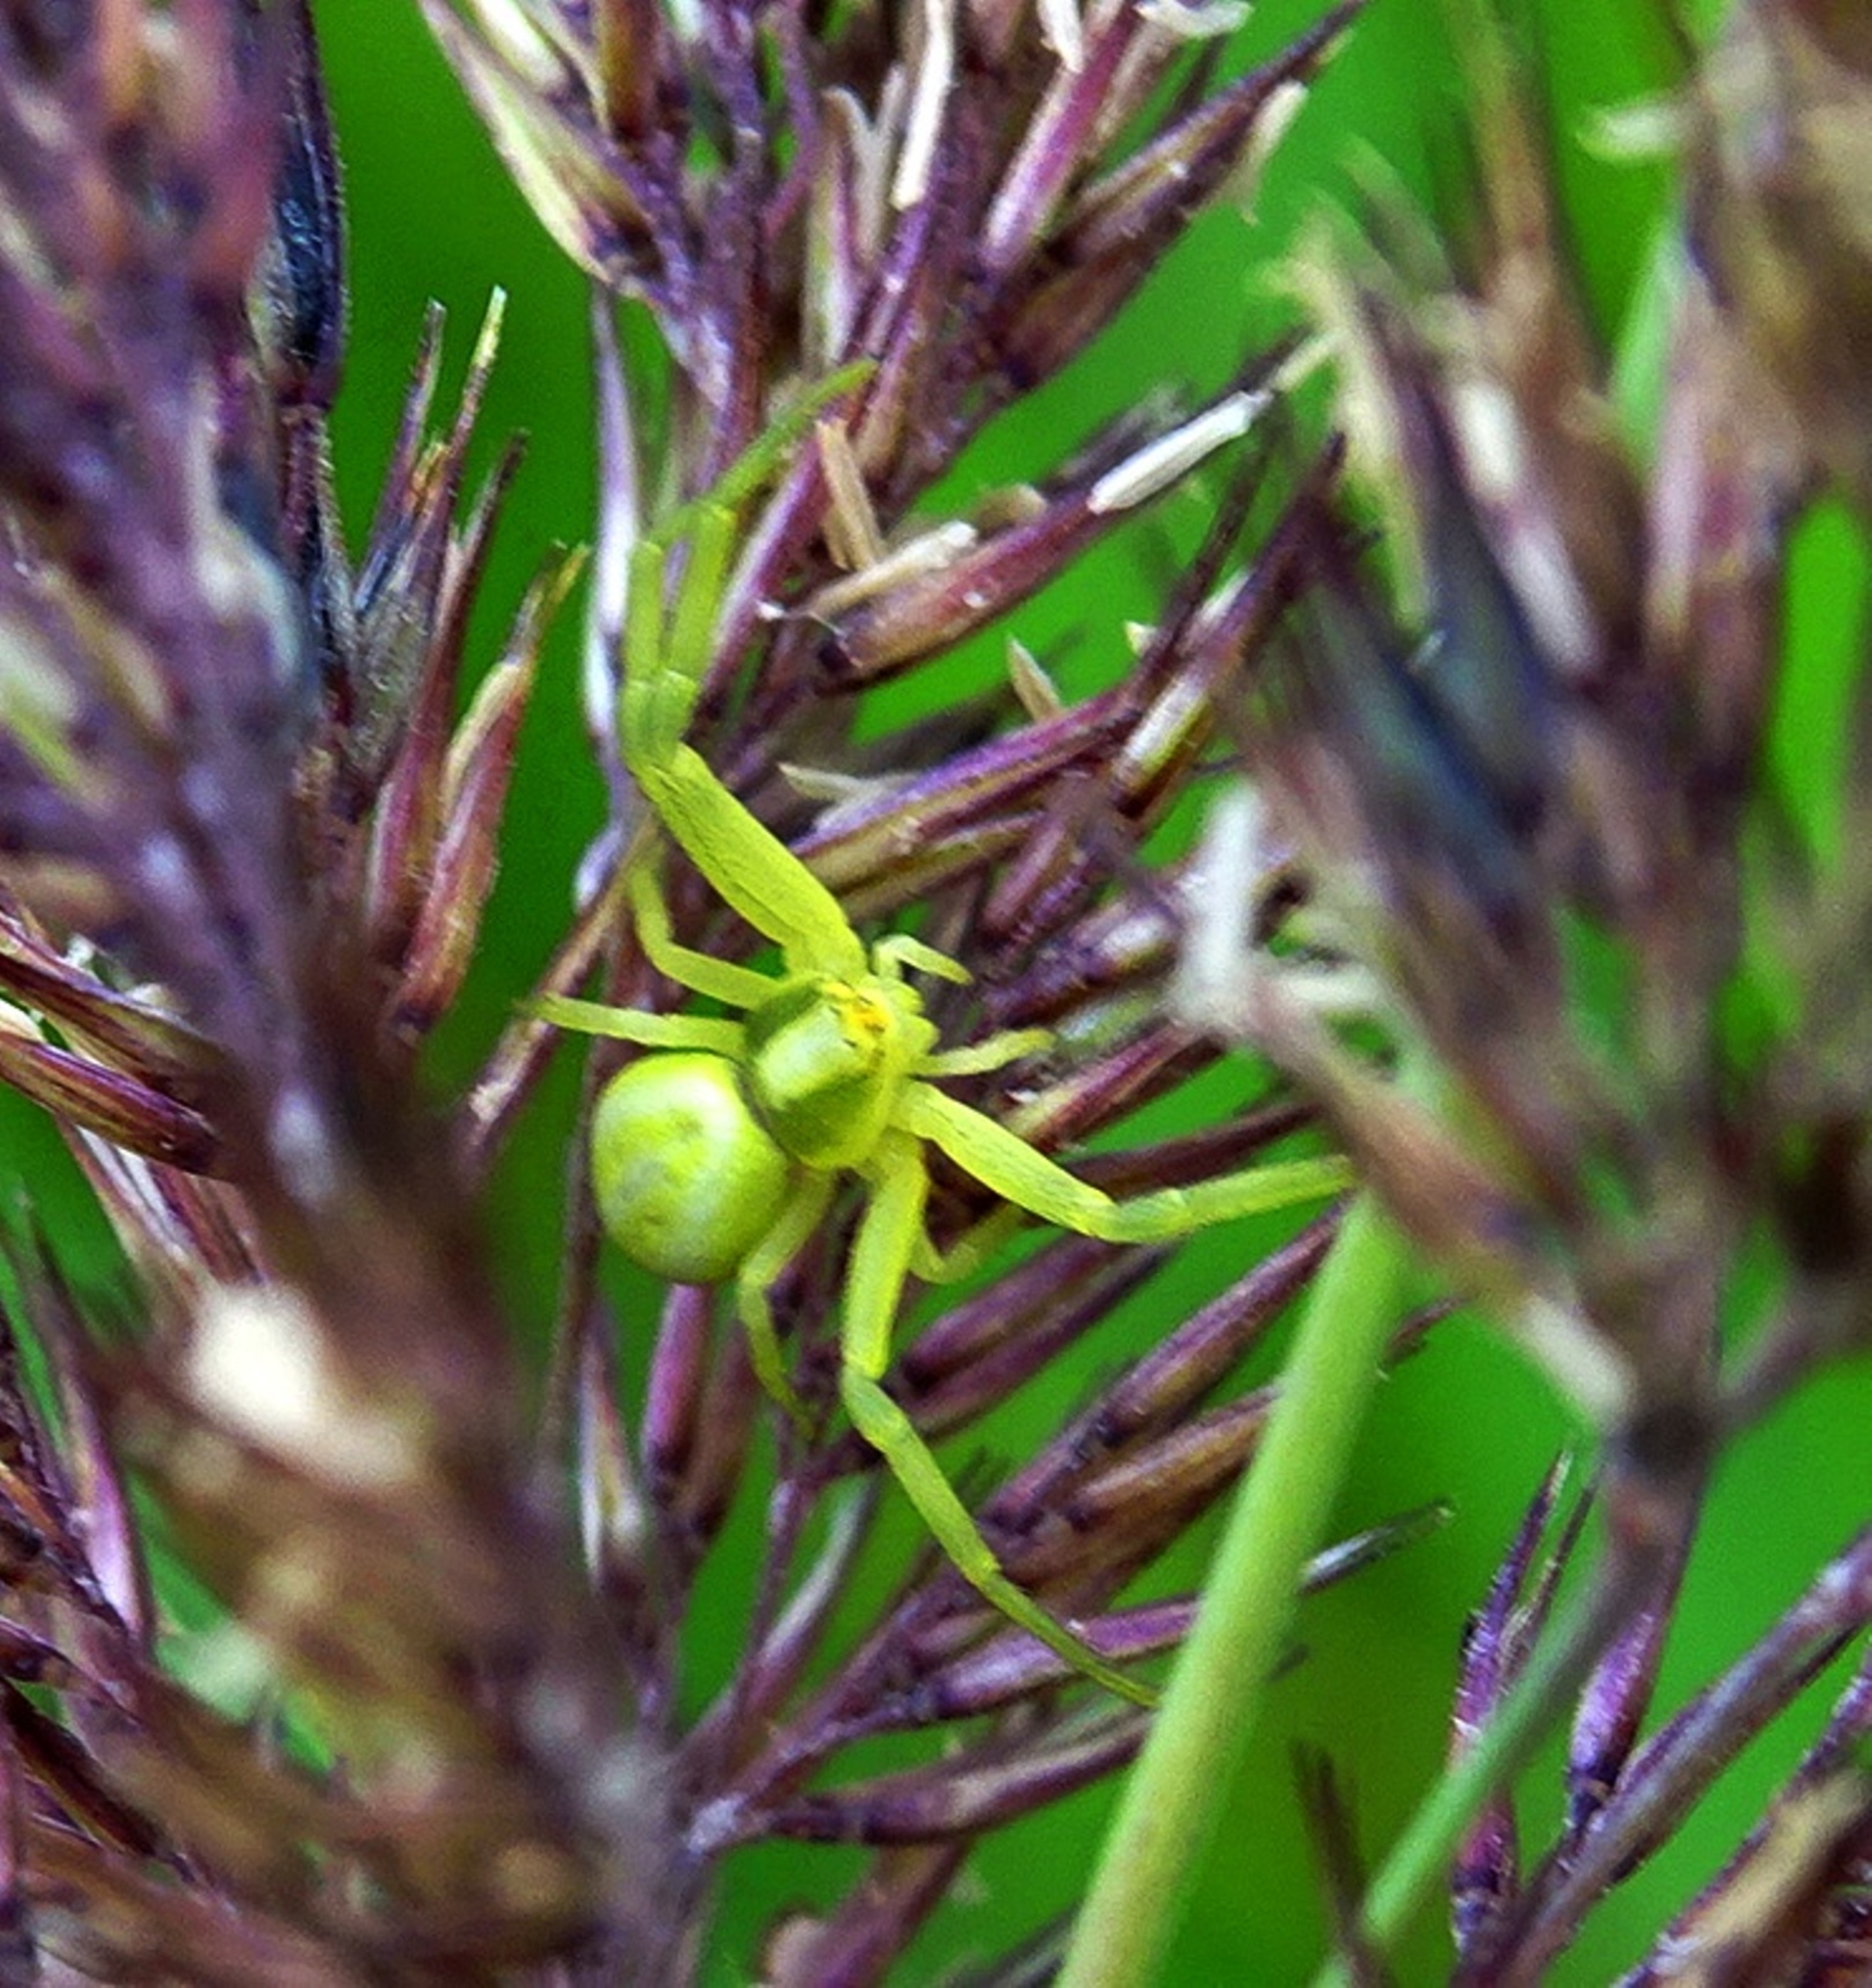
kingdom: Animalia
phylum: Arthropoda
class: Arachnida
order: Araneae
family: Thomisidae
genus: Misumena
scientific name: Misumena vatia
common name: Kamæleonedderkop
